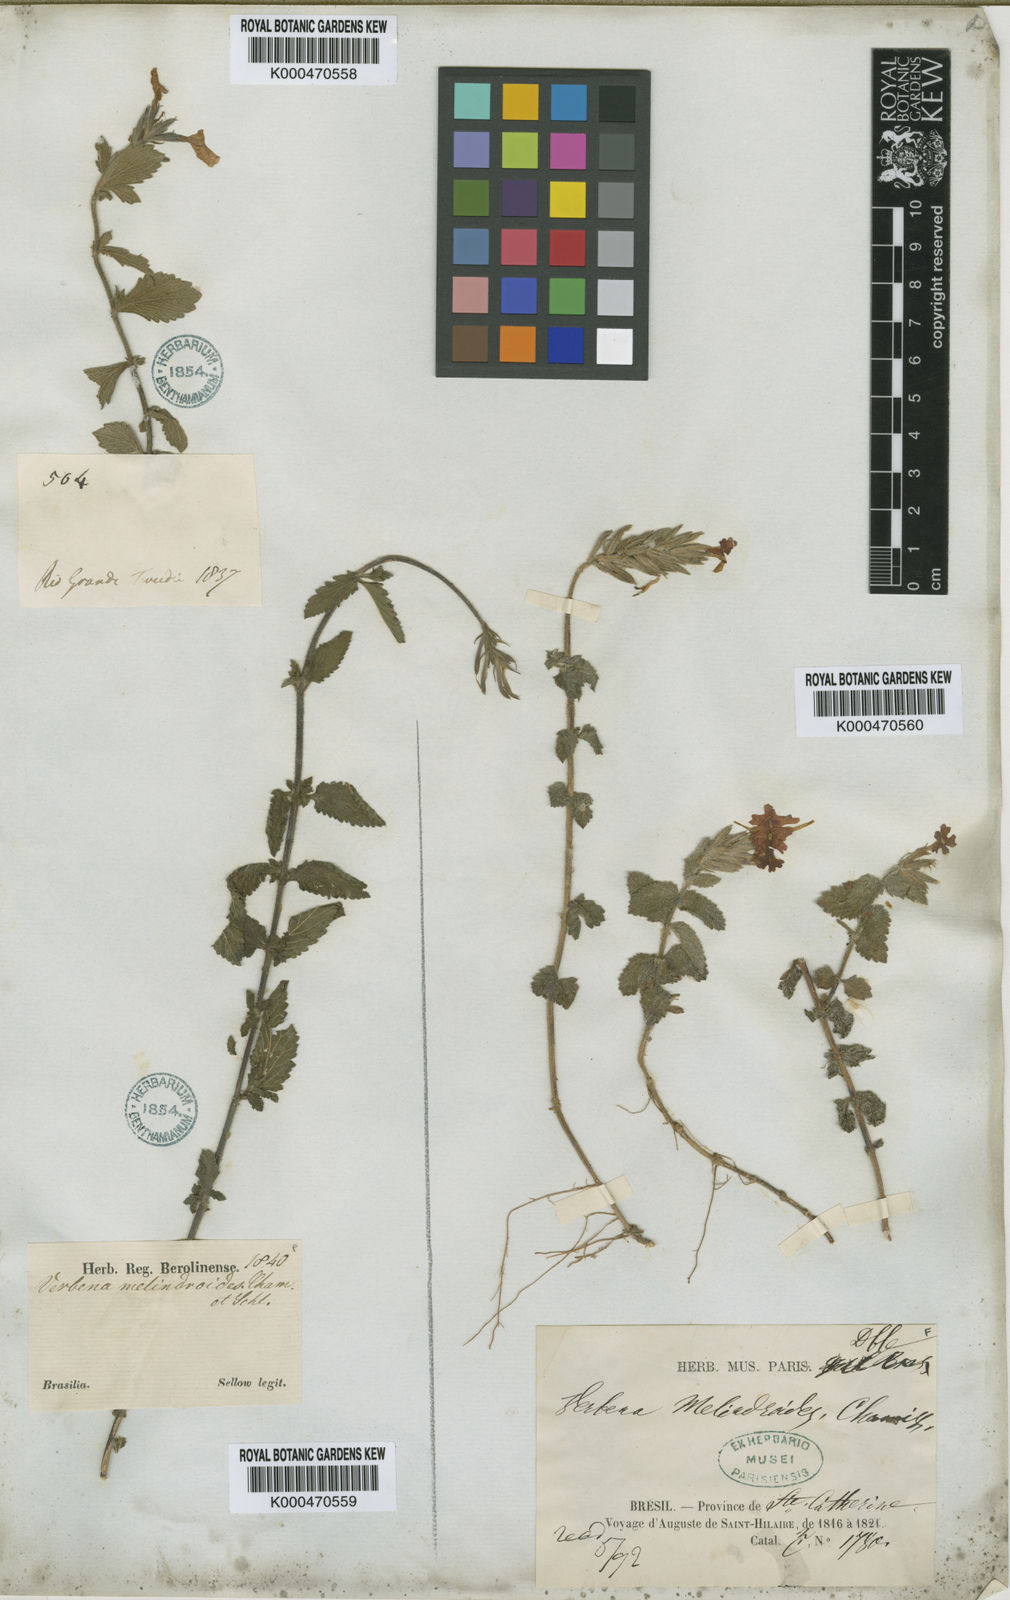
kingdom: Plantae
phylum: Tracheophyta
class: Magnoliopsida
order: Lamiales
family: Verbenaceae
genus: Verbena
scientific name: Verbena paulensis
